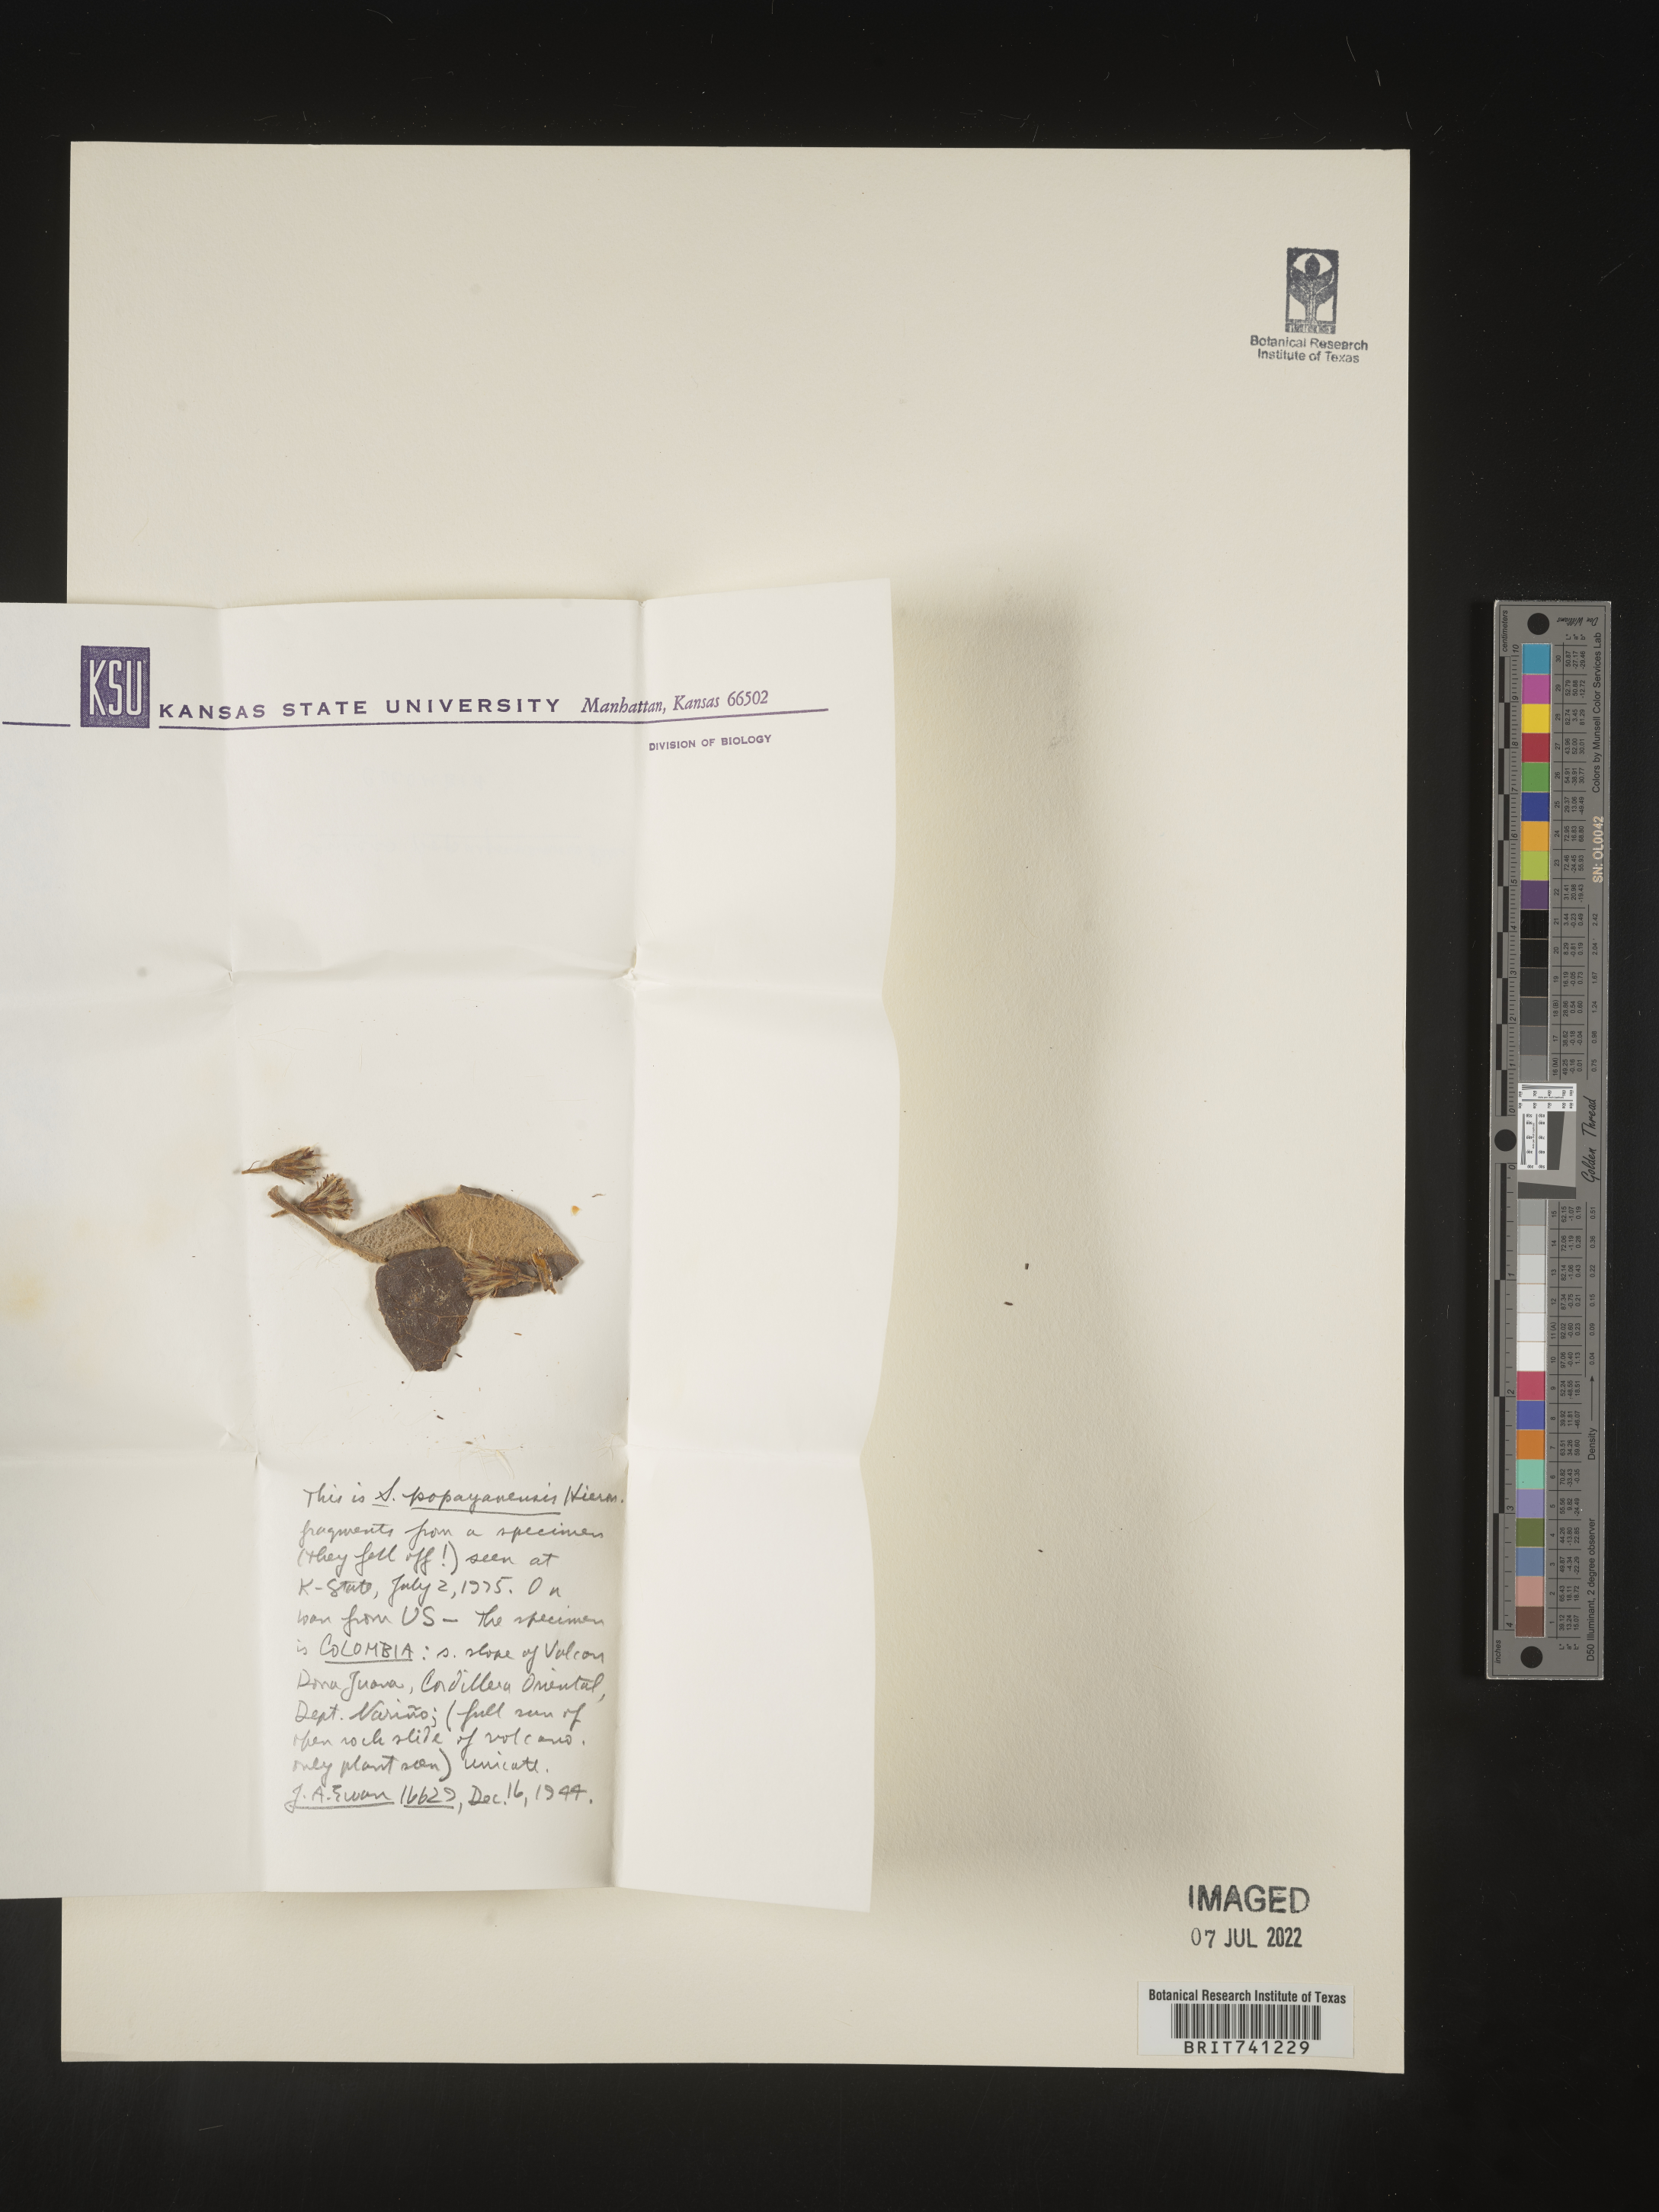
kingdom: Plantae
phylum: Tracheophyta
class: Magnoliopsida
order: Asterales
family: Asteraceae
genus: Senecio
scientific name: Senecio
